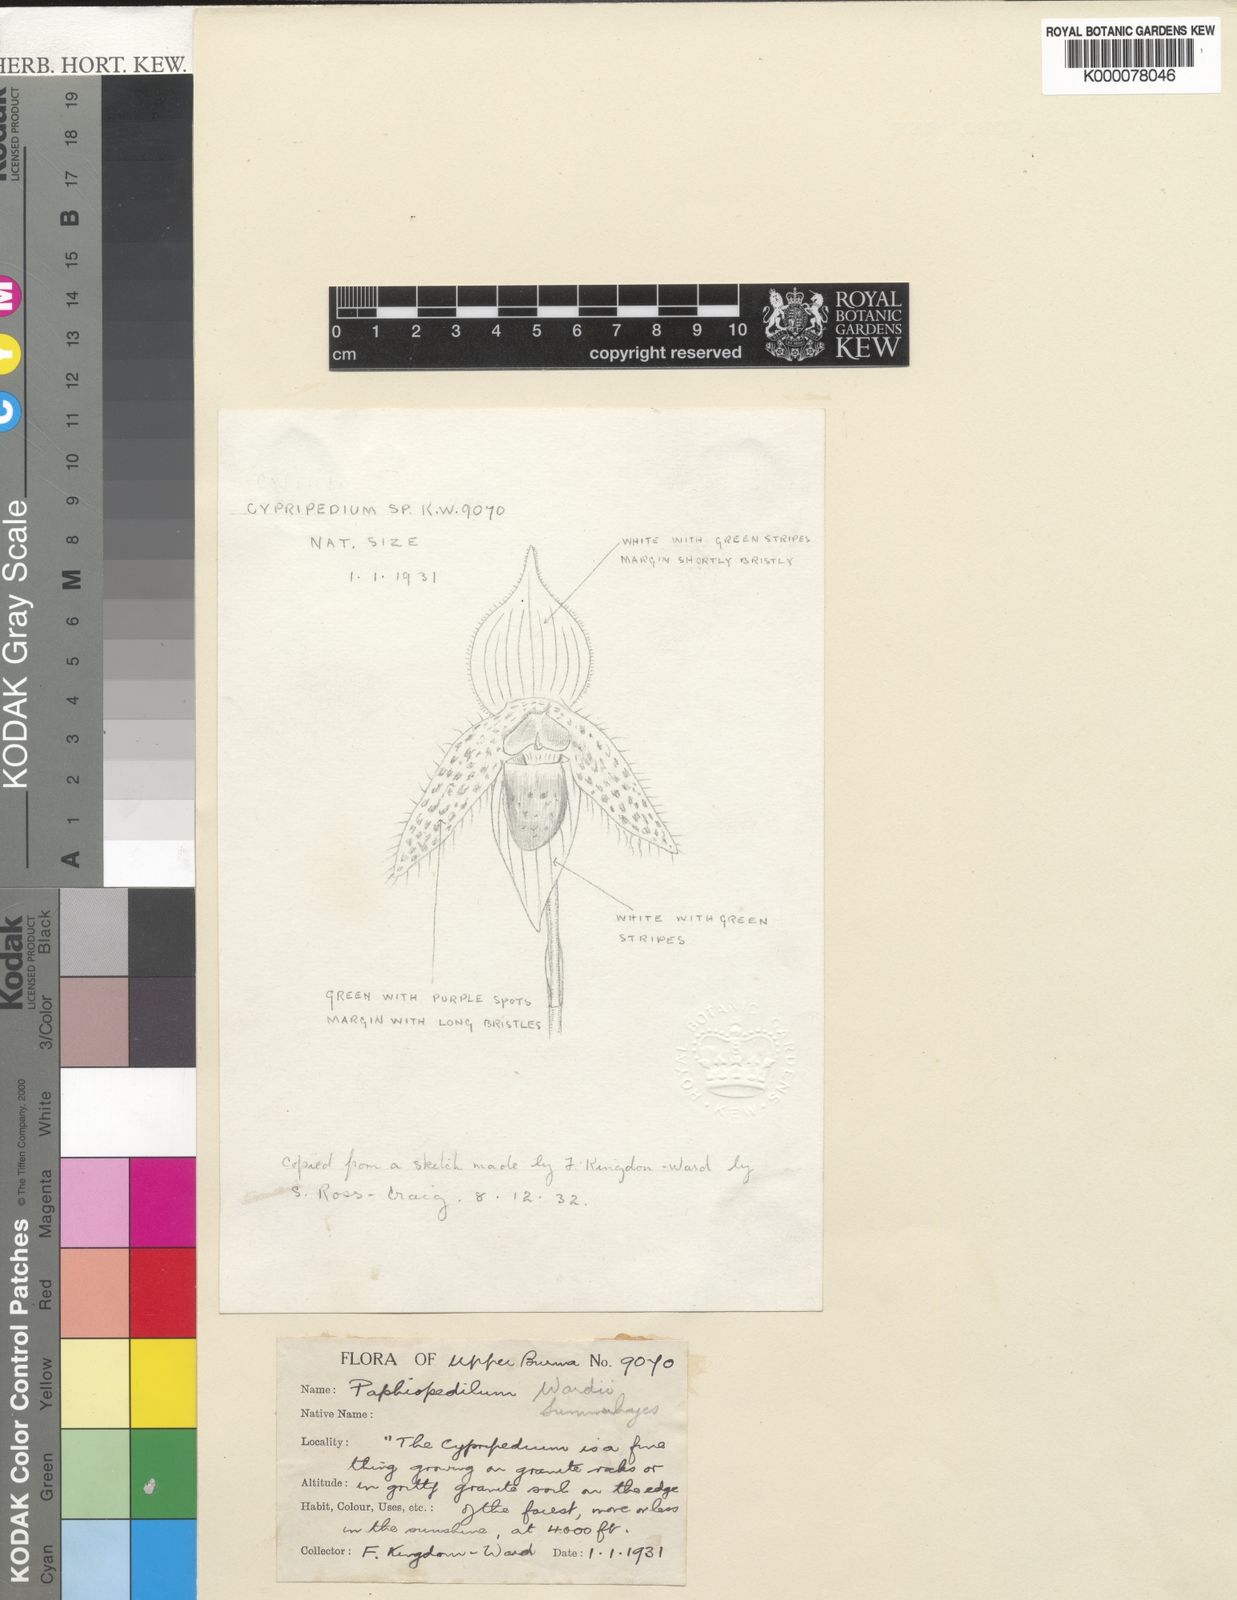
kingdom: Plantae
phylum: Tracheophyta
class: Liliopsida
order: Asparagales
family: Orchidaceae
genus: Paphiopedilum
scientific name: Paphiopedilum wardii
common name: Ward's paphiopedilum
